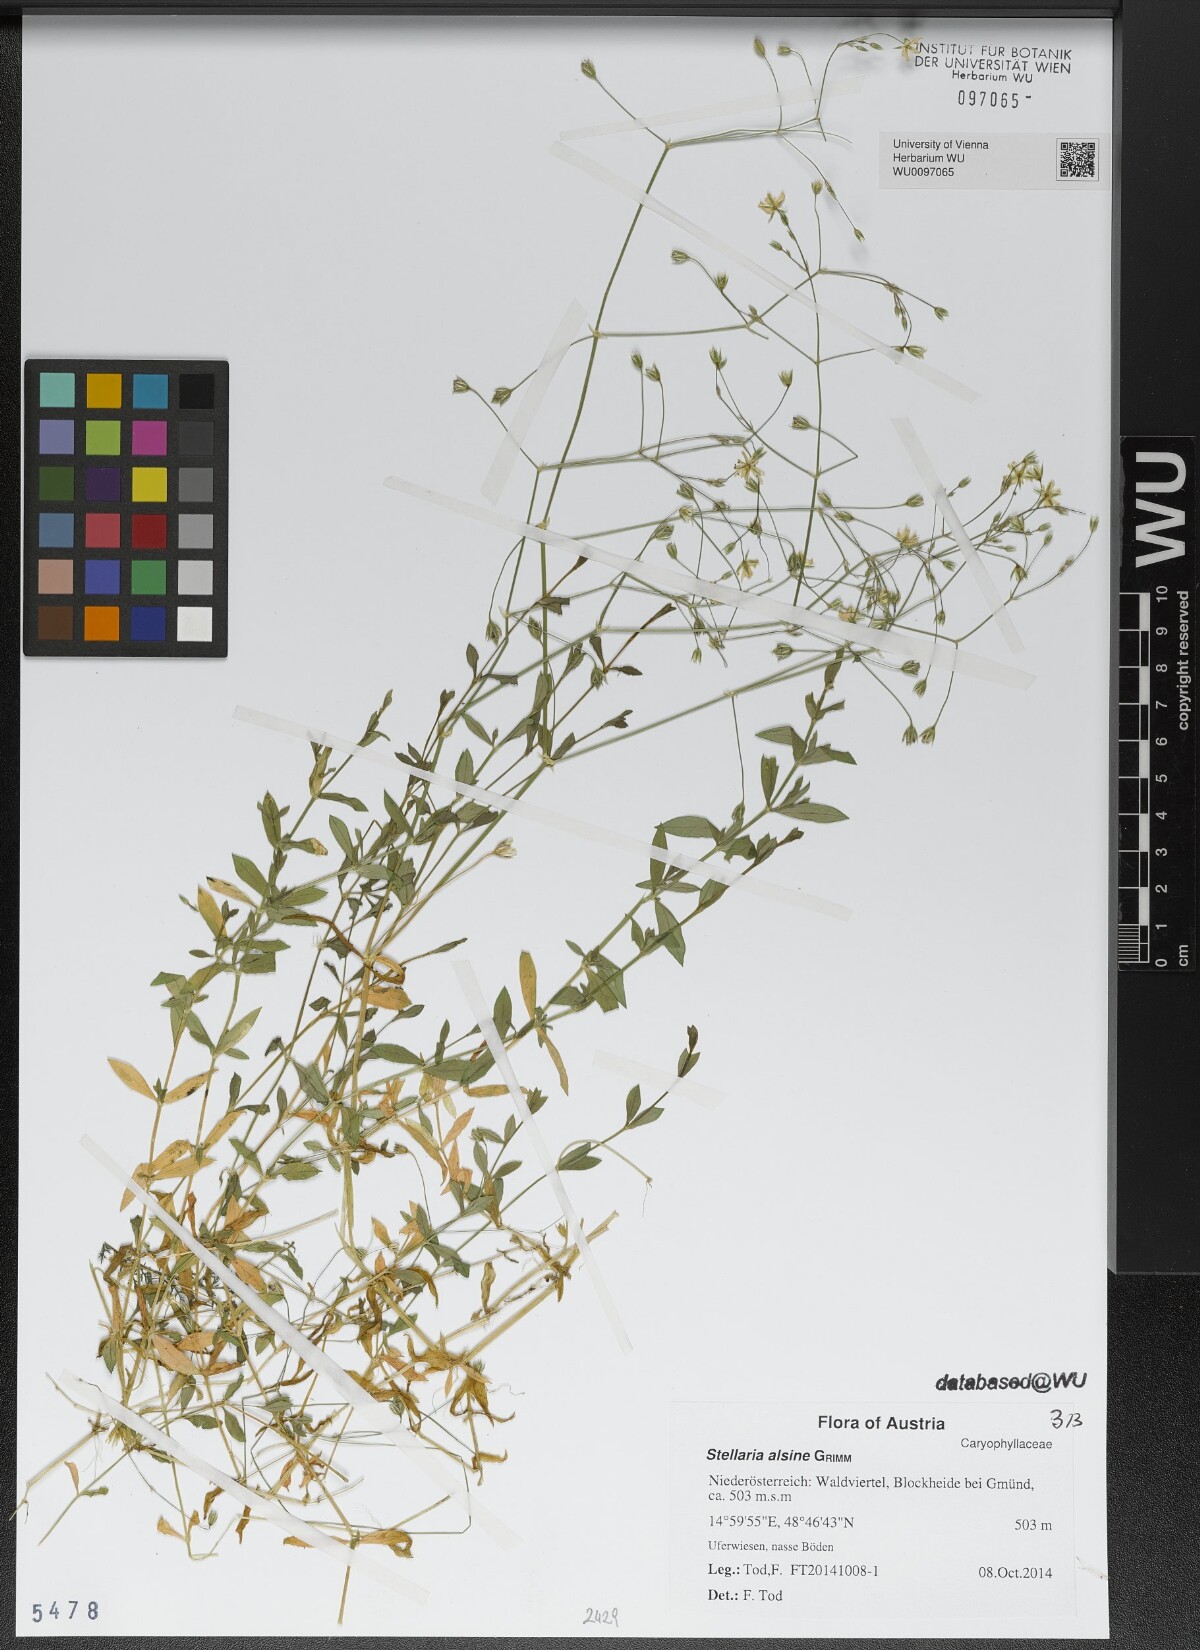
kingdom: Plantae
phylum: Tracheophyta
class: Magnoliopsida
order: Caryophyllales
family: Caryophyllaceae
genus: Stellaria
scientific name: Stellaria alsine
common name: Bog stitchwort
